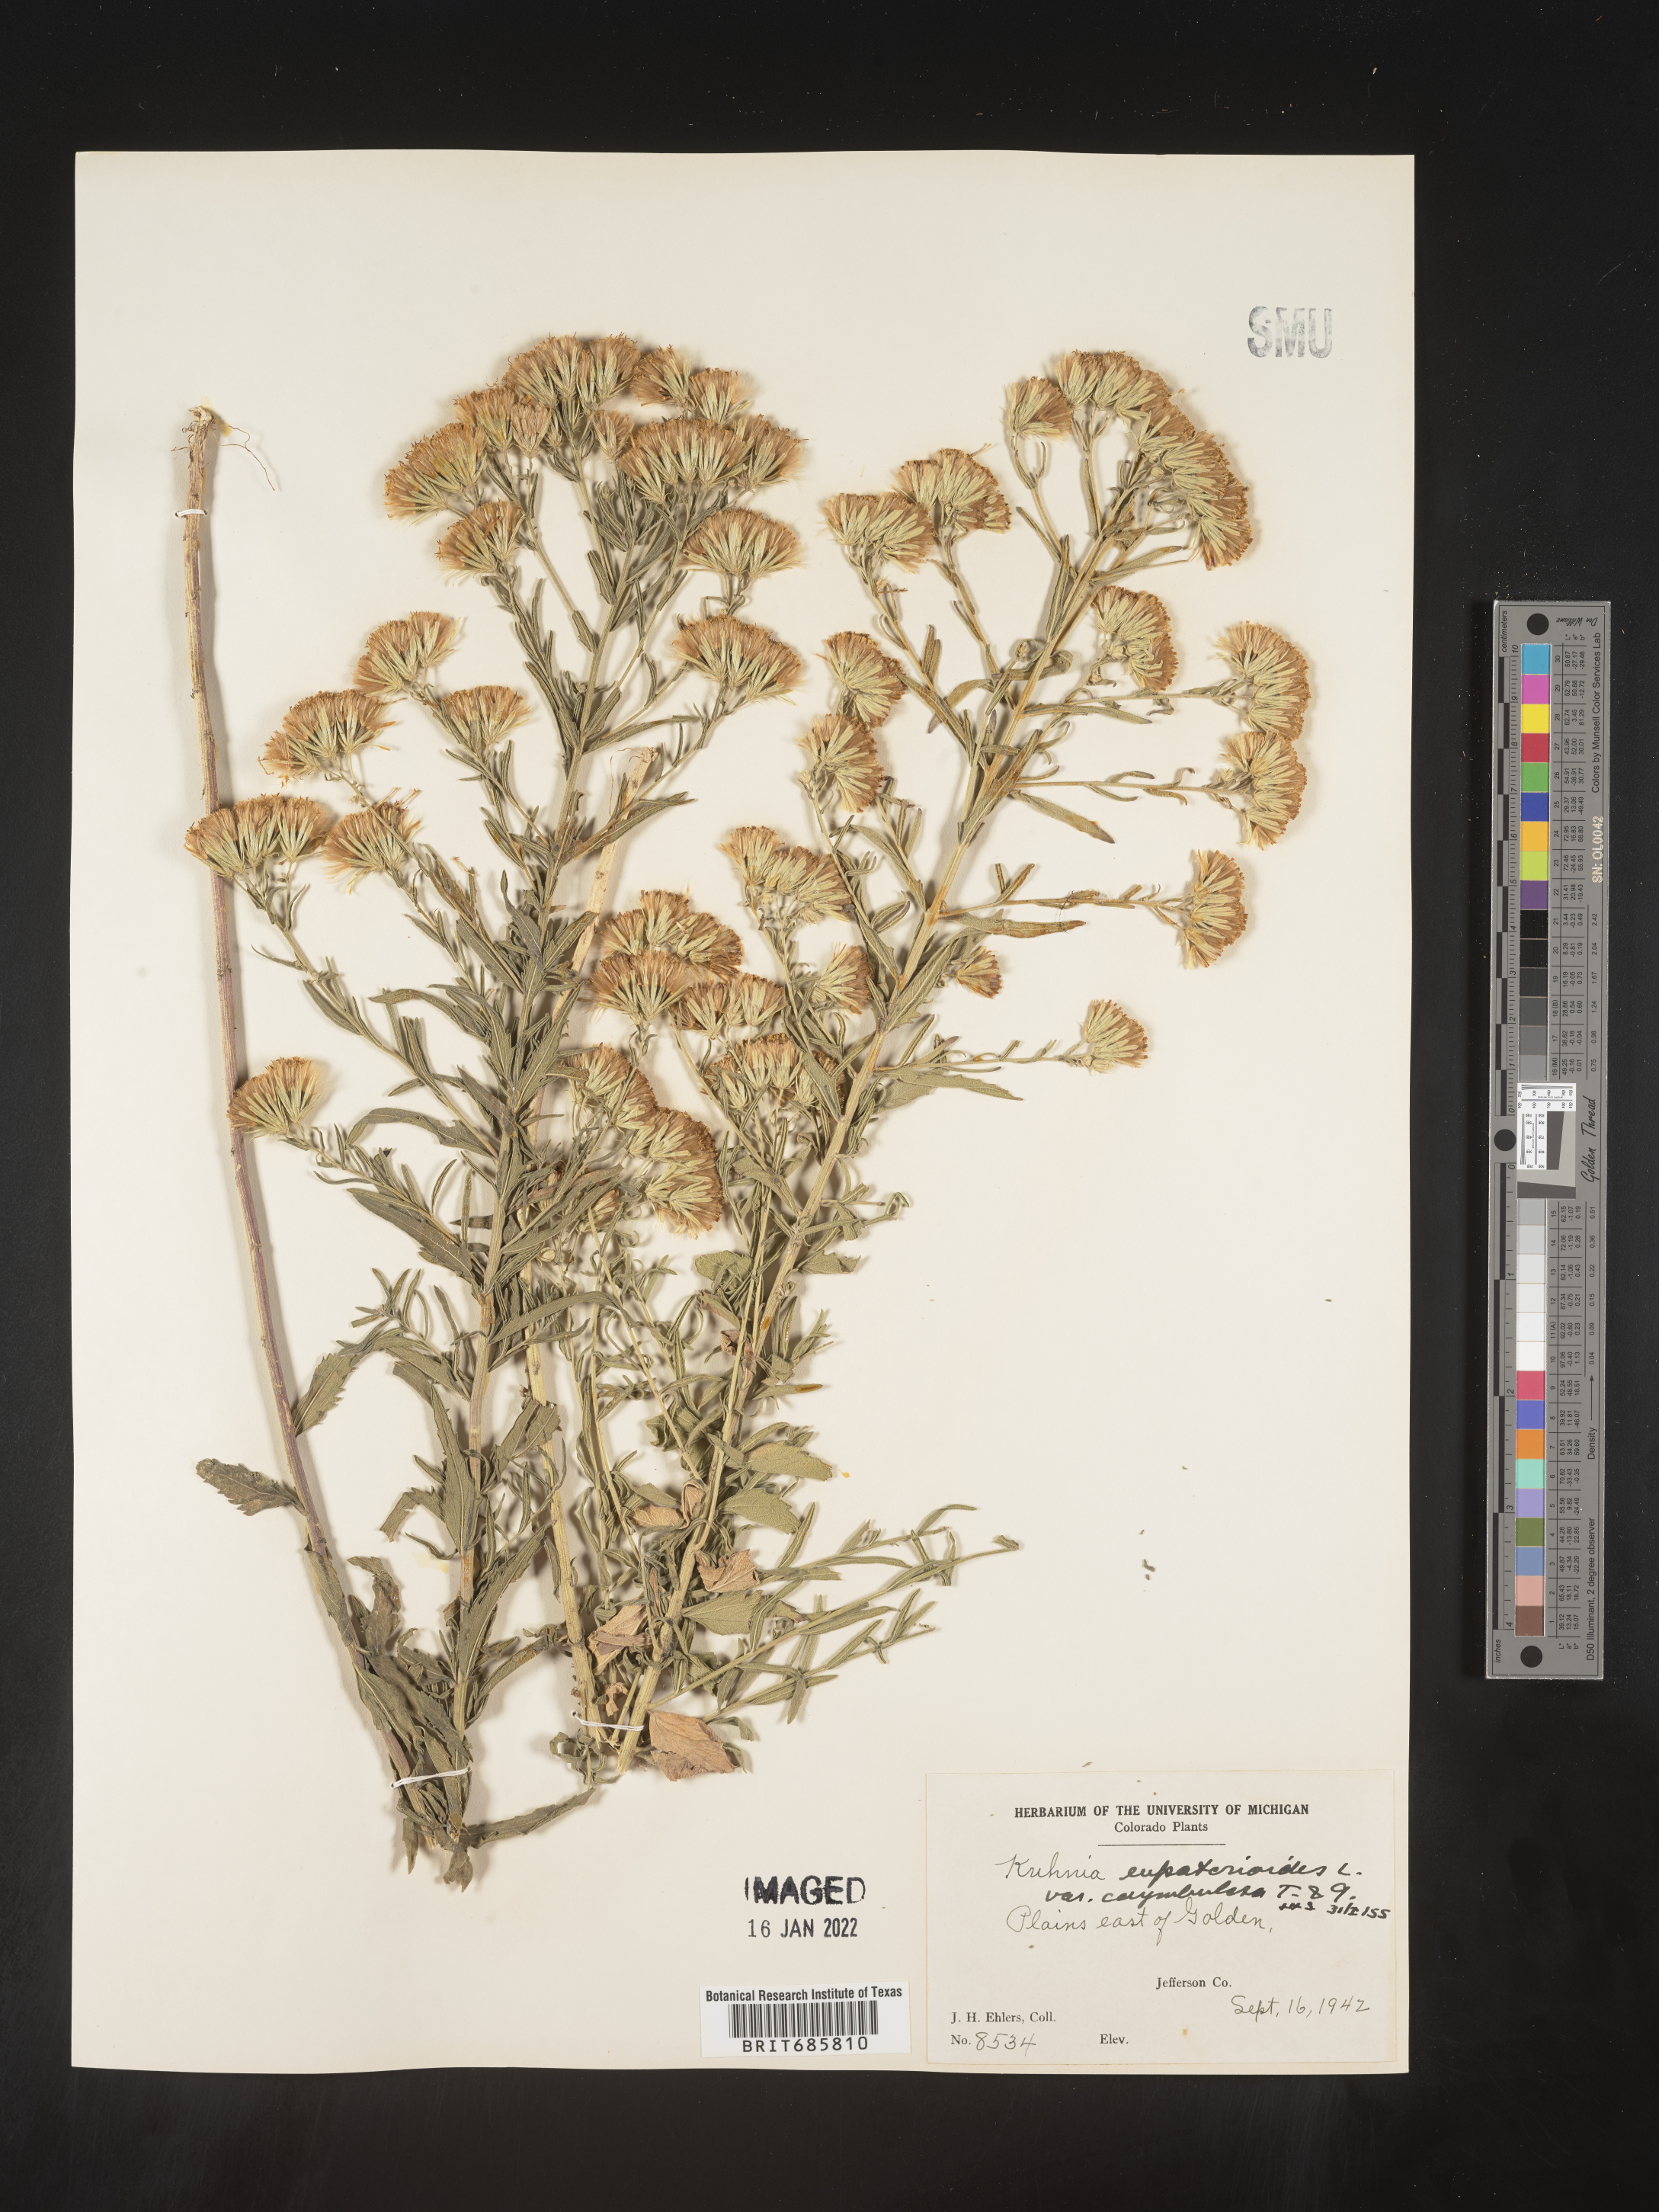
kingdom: Plantae
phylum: Tracheophyta
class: Magnoliopsida
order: Asterales
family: Asteraceae
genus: Brickellia
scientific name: Brickellia eupatorioides
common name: False boneset
